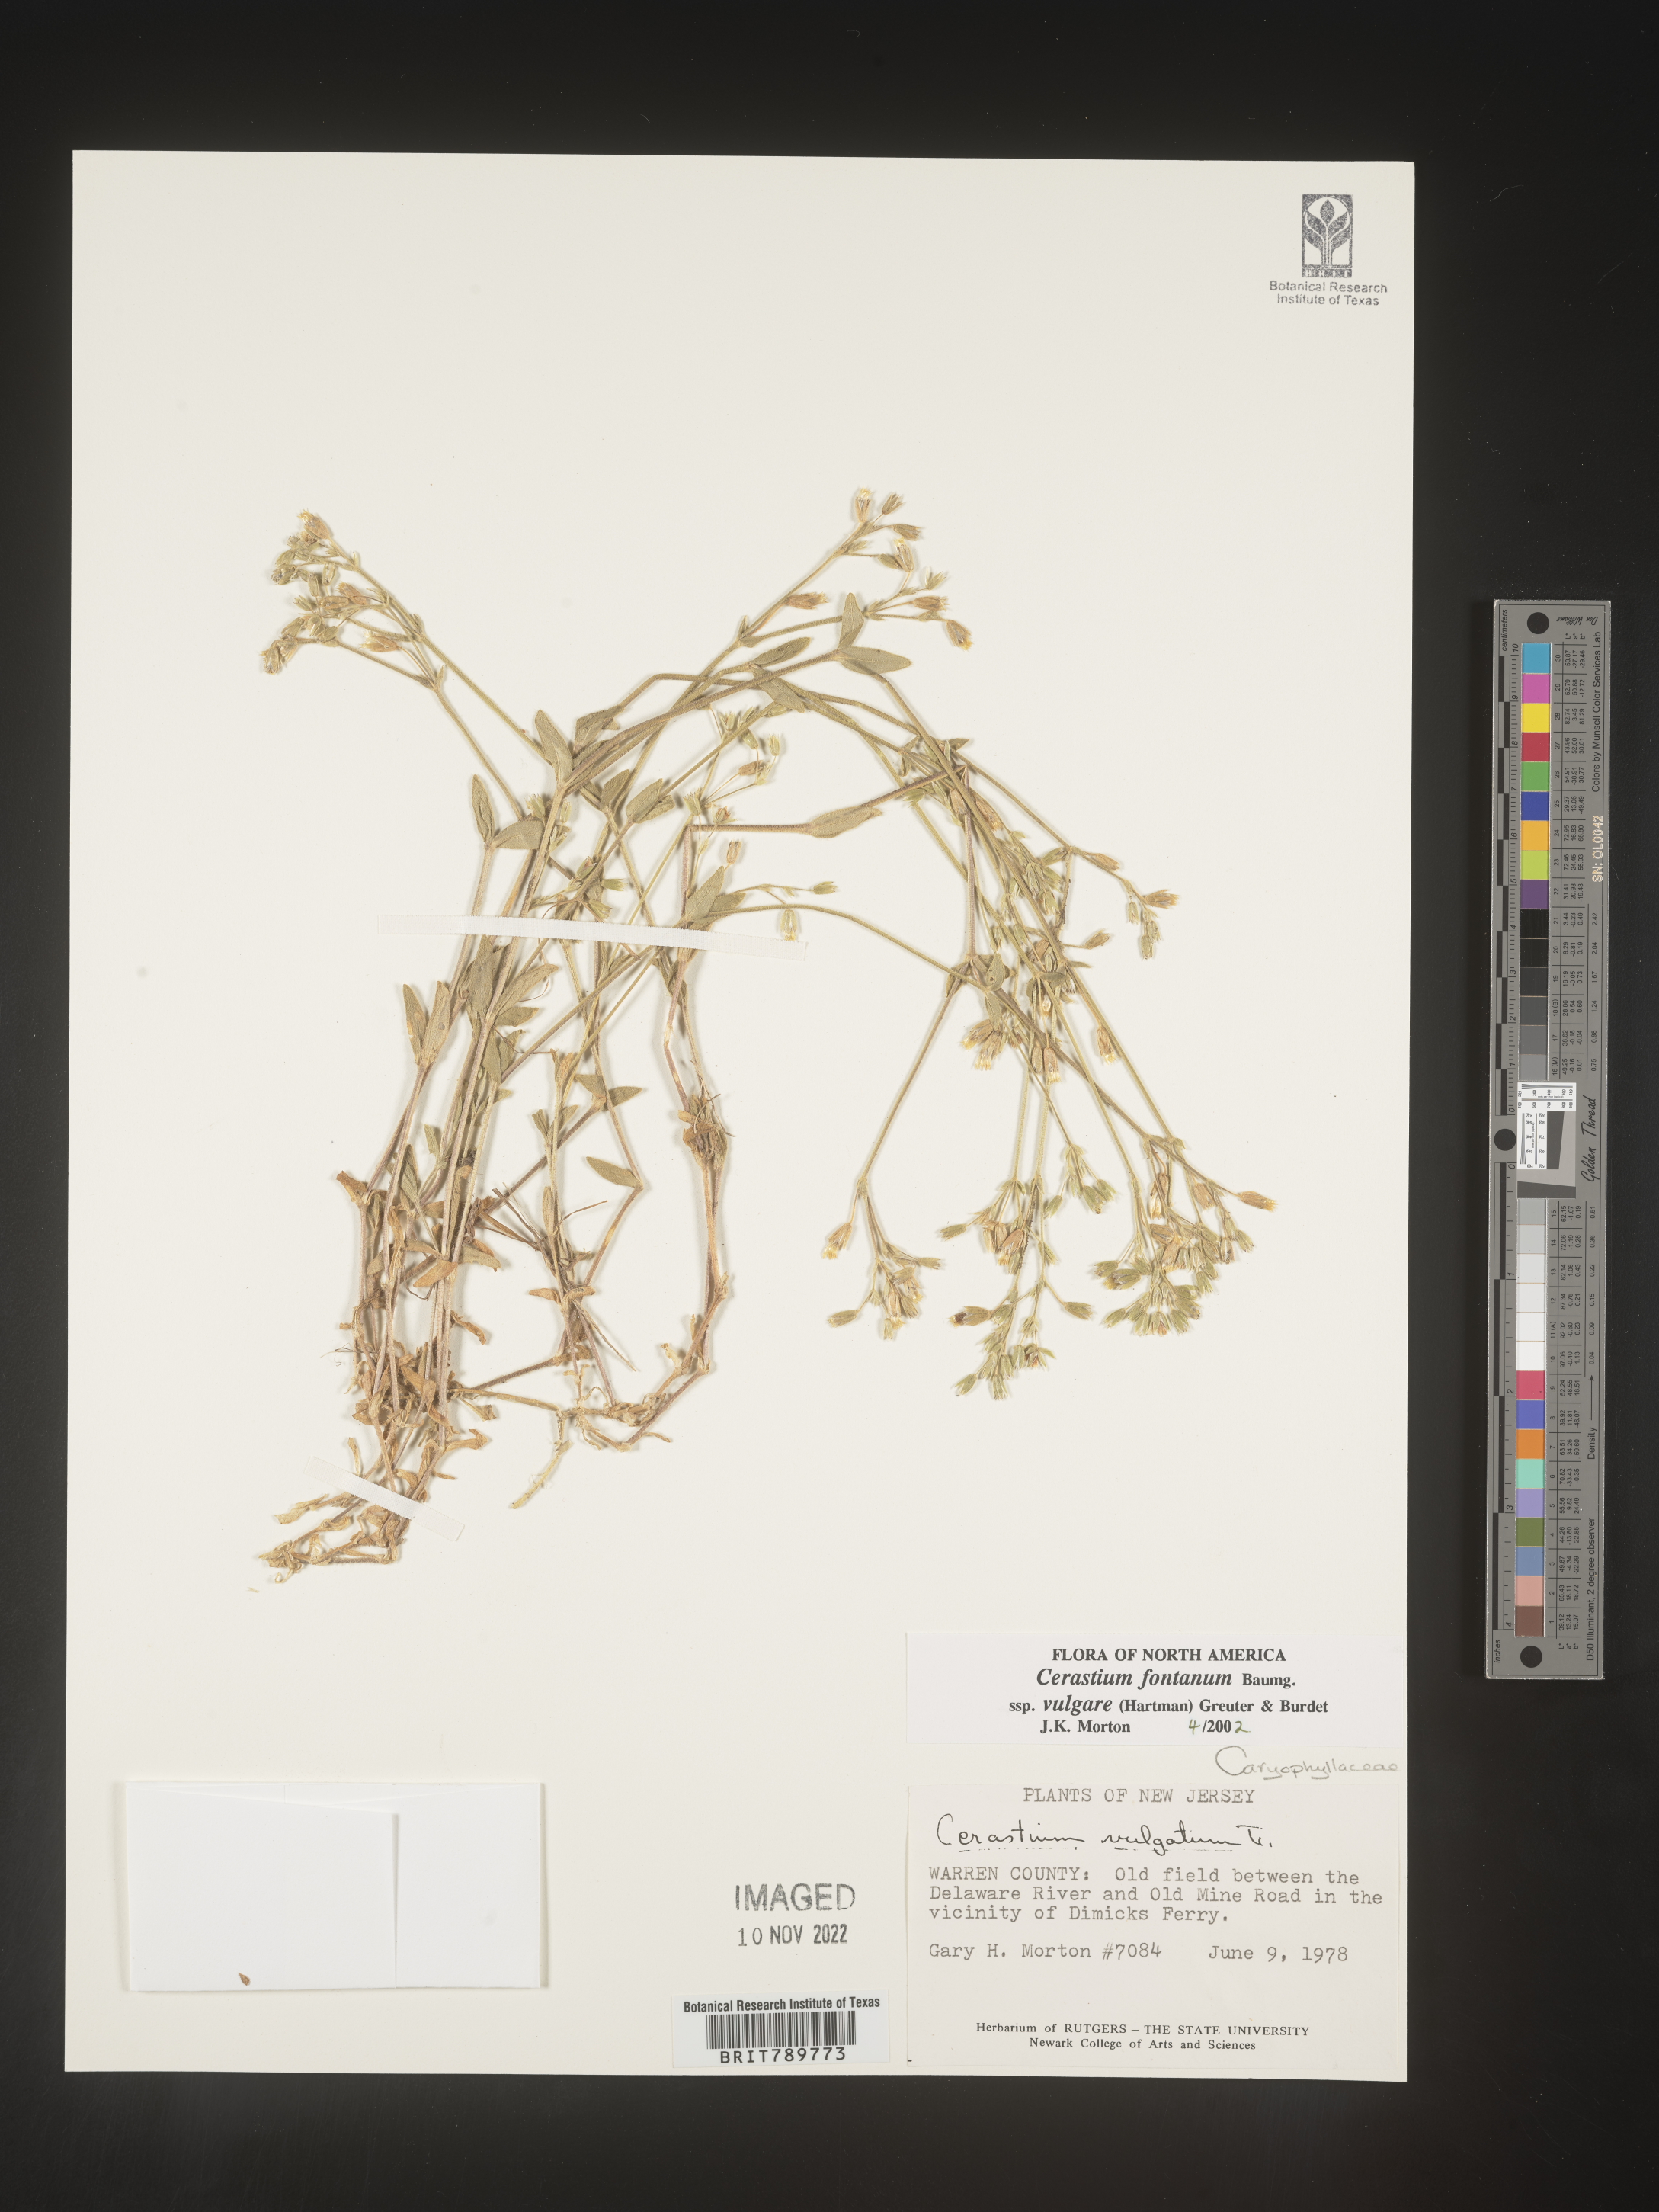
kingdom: Plantae
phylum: Tracheophyta
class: Magnoliopsida
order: Caryophyllales
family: Caryophyllaceae
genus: Cerastium
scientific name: Cerastium fontanum
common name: Common mouse-ear
